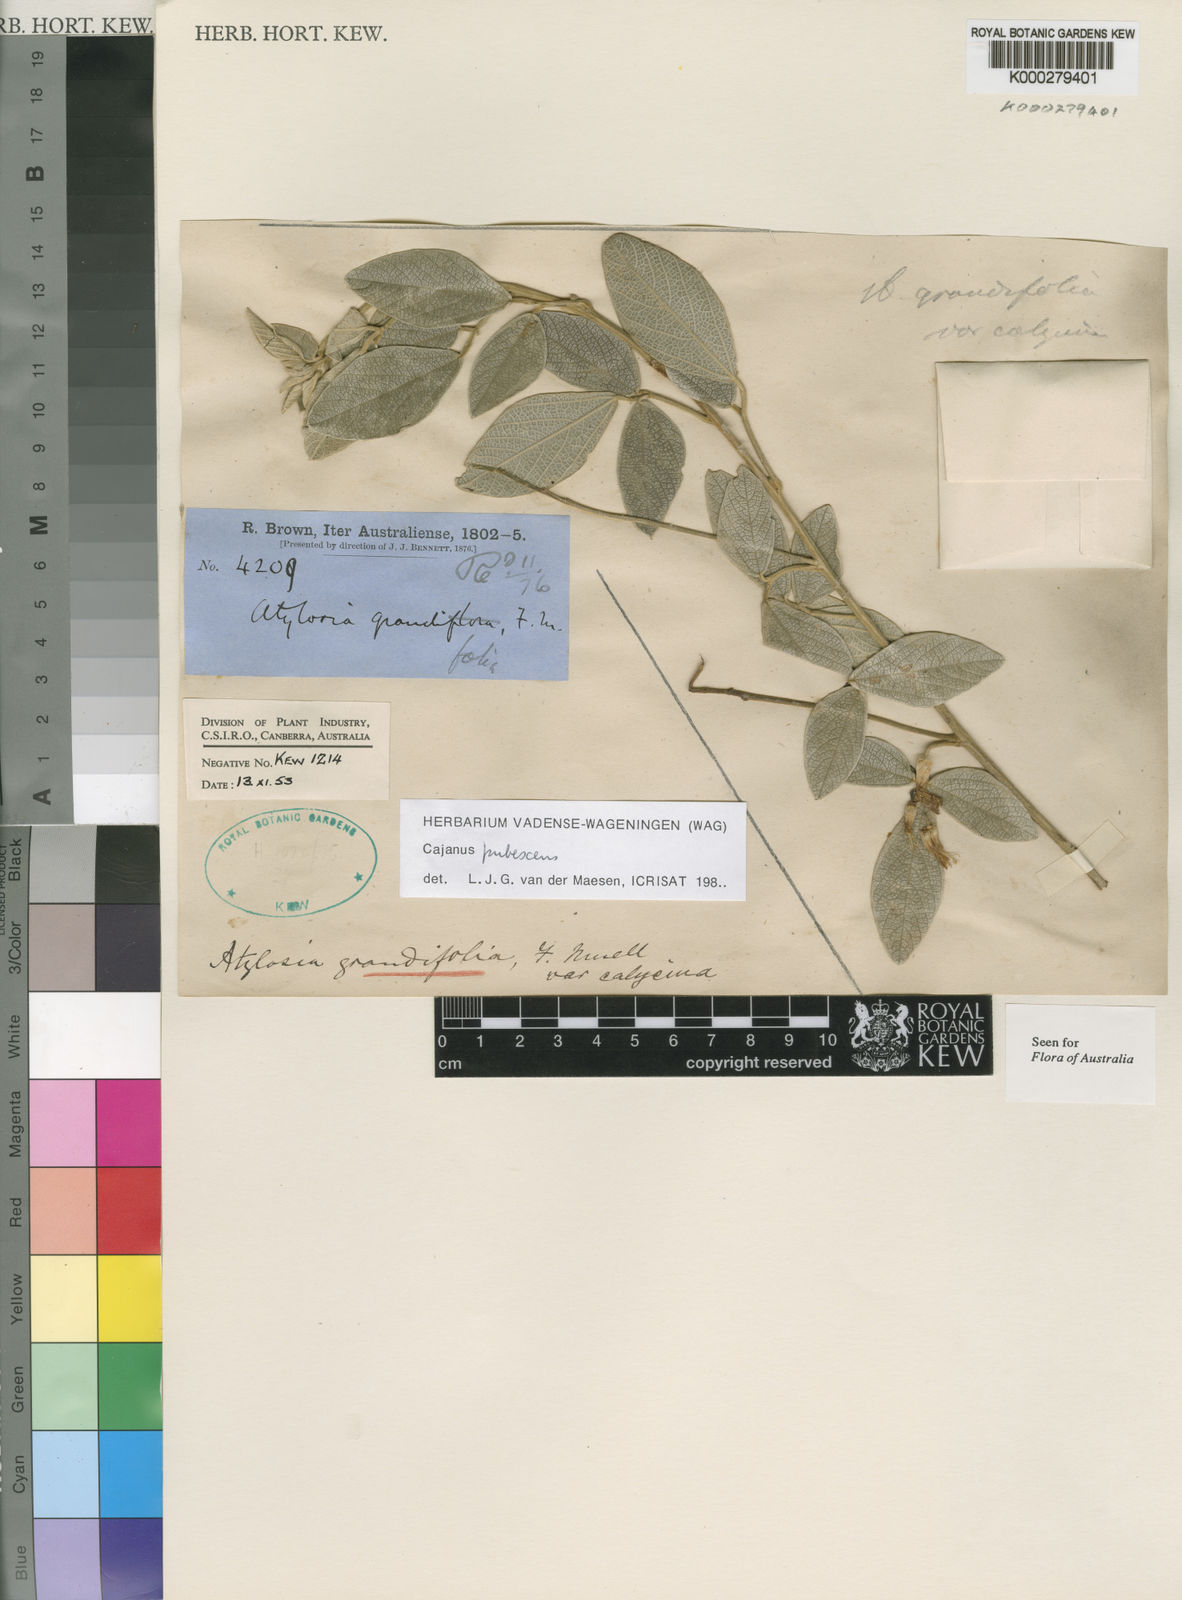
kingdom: Plantae
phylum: Tracheophyta
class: Magnoliopsida
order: Fabales
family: Fabaceae
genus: Cajanus
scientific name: Cajanus pubescens
